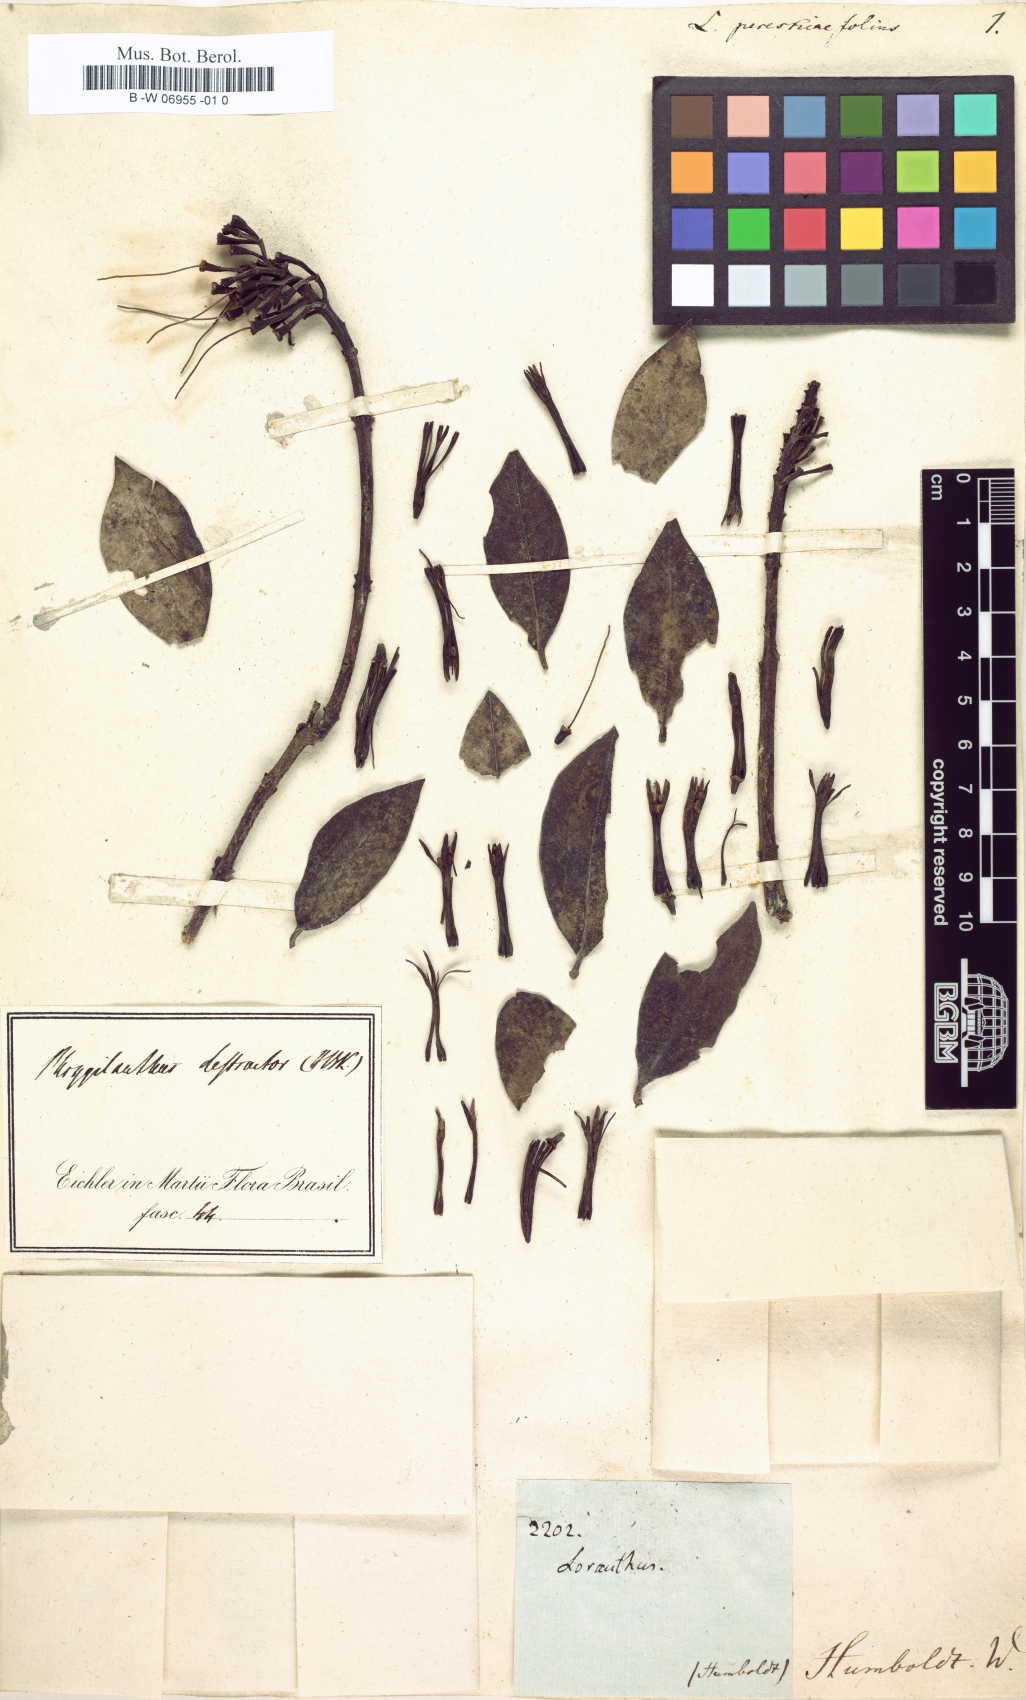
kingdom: Plantae
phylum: Tracheophyta
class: Magnoliopsida
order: Santalales
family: Loranthaceae
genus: Tristerix
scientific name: Tristerix longebracteatus
